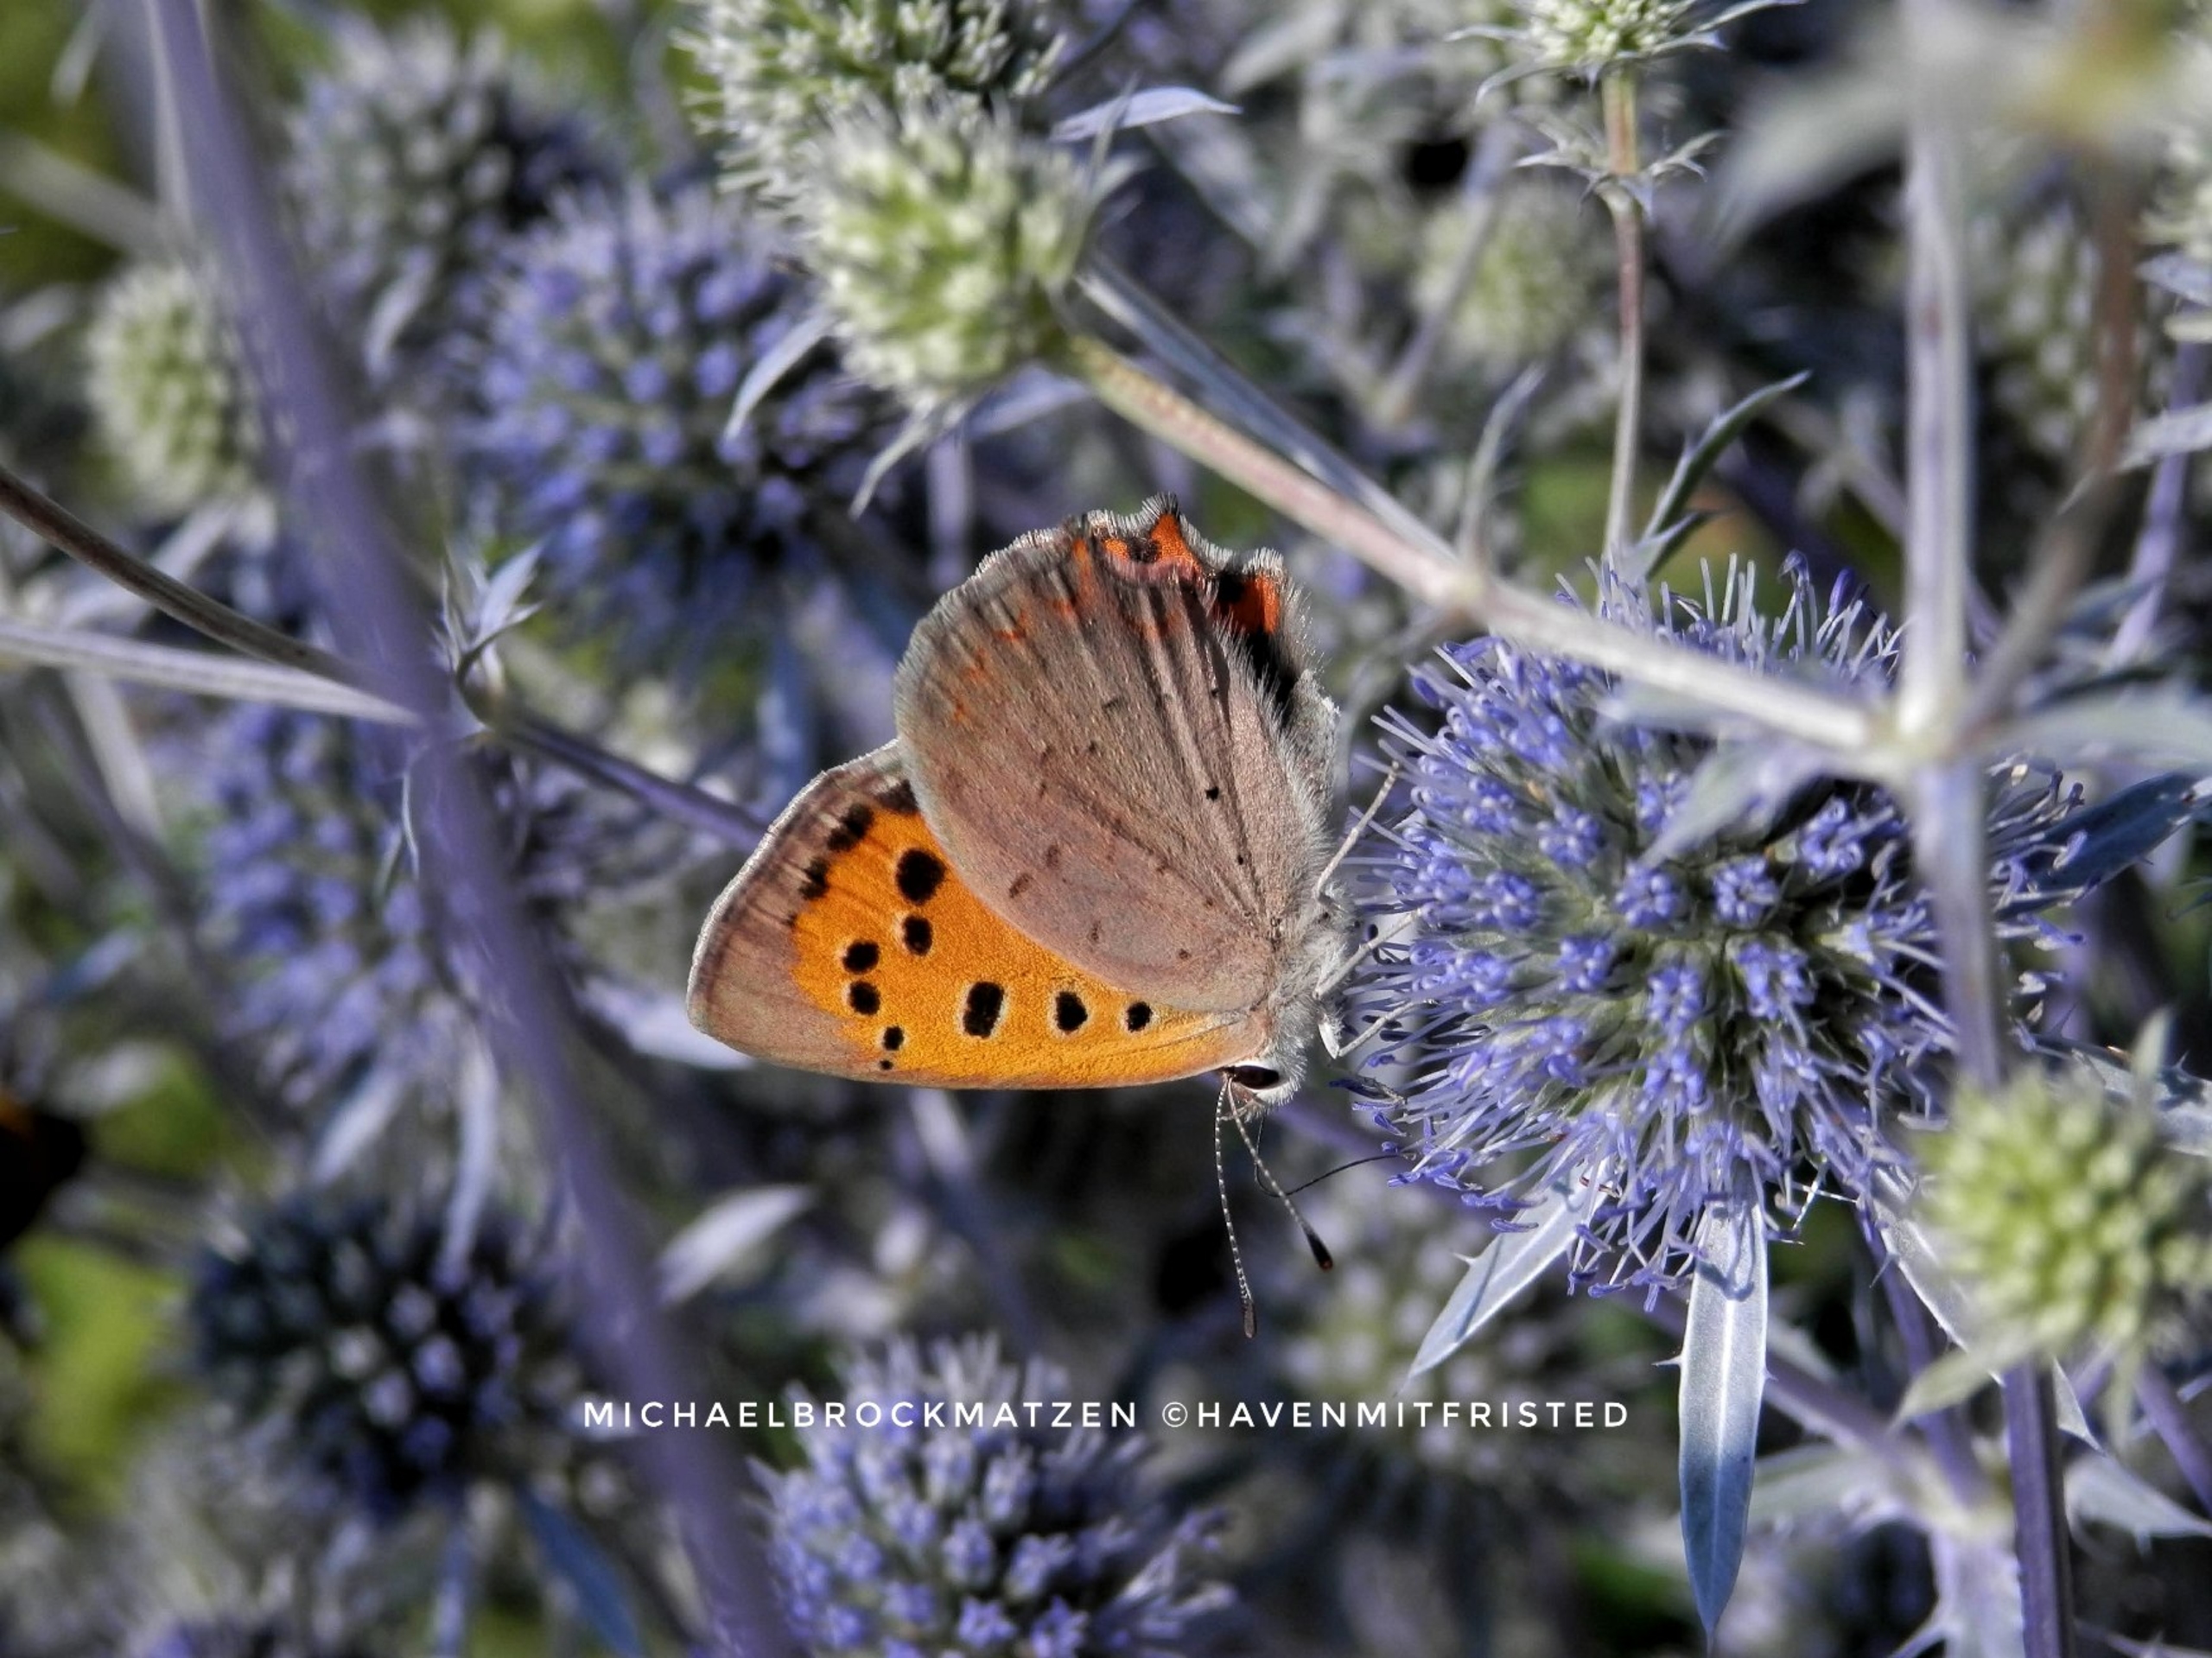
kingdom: Animalia
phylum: Arthropoda
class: Insecta
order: Lepidoptera
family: Lycaenidae
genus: Lycaena
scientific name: Lycaena phlaeas
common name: Lille ildfugl
